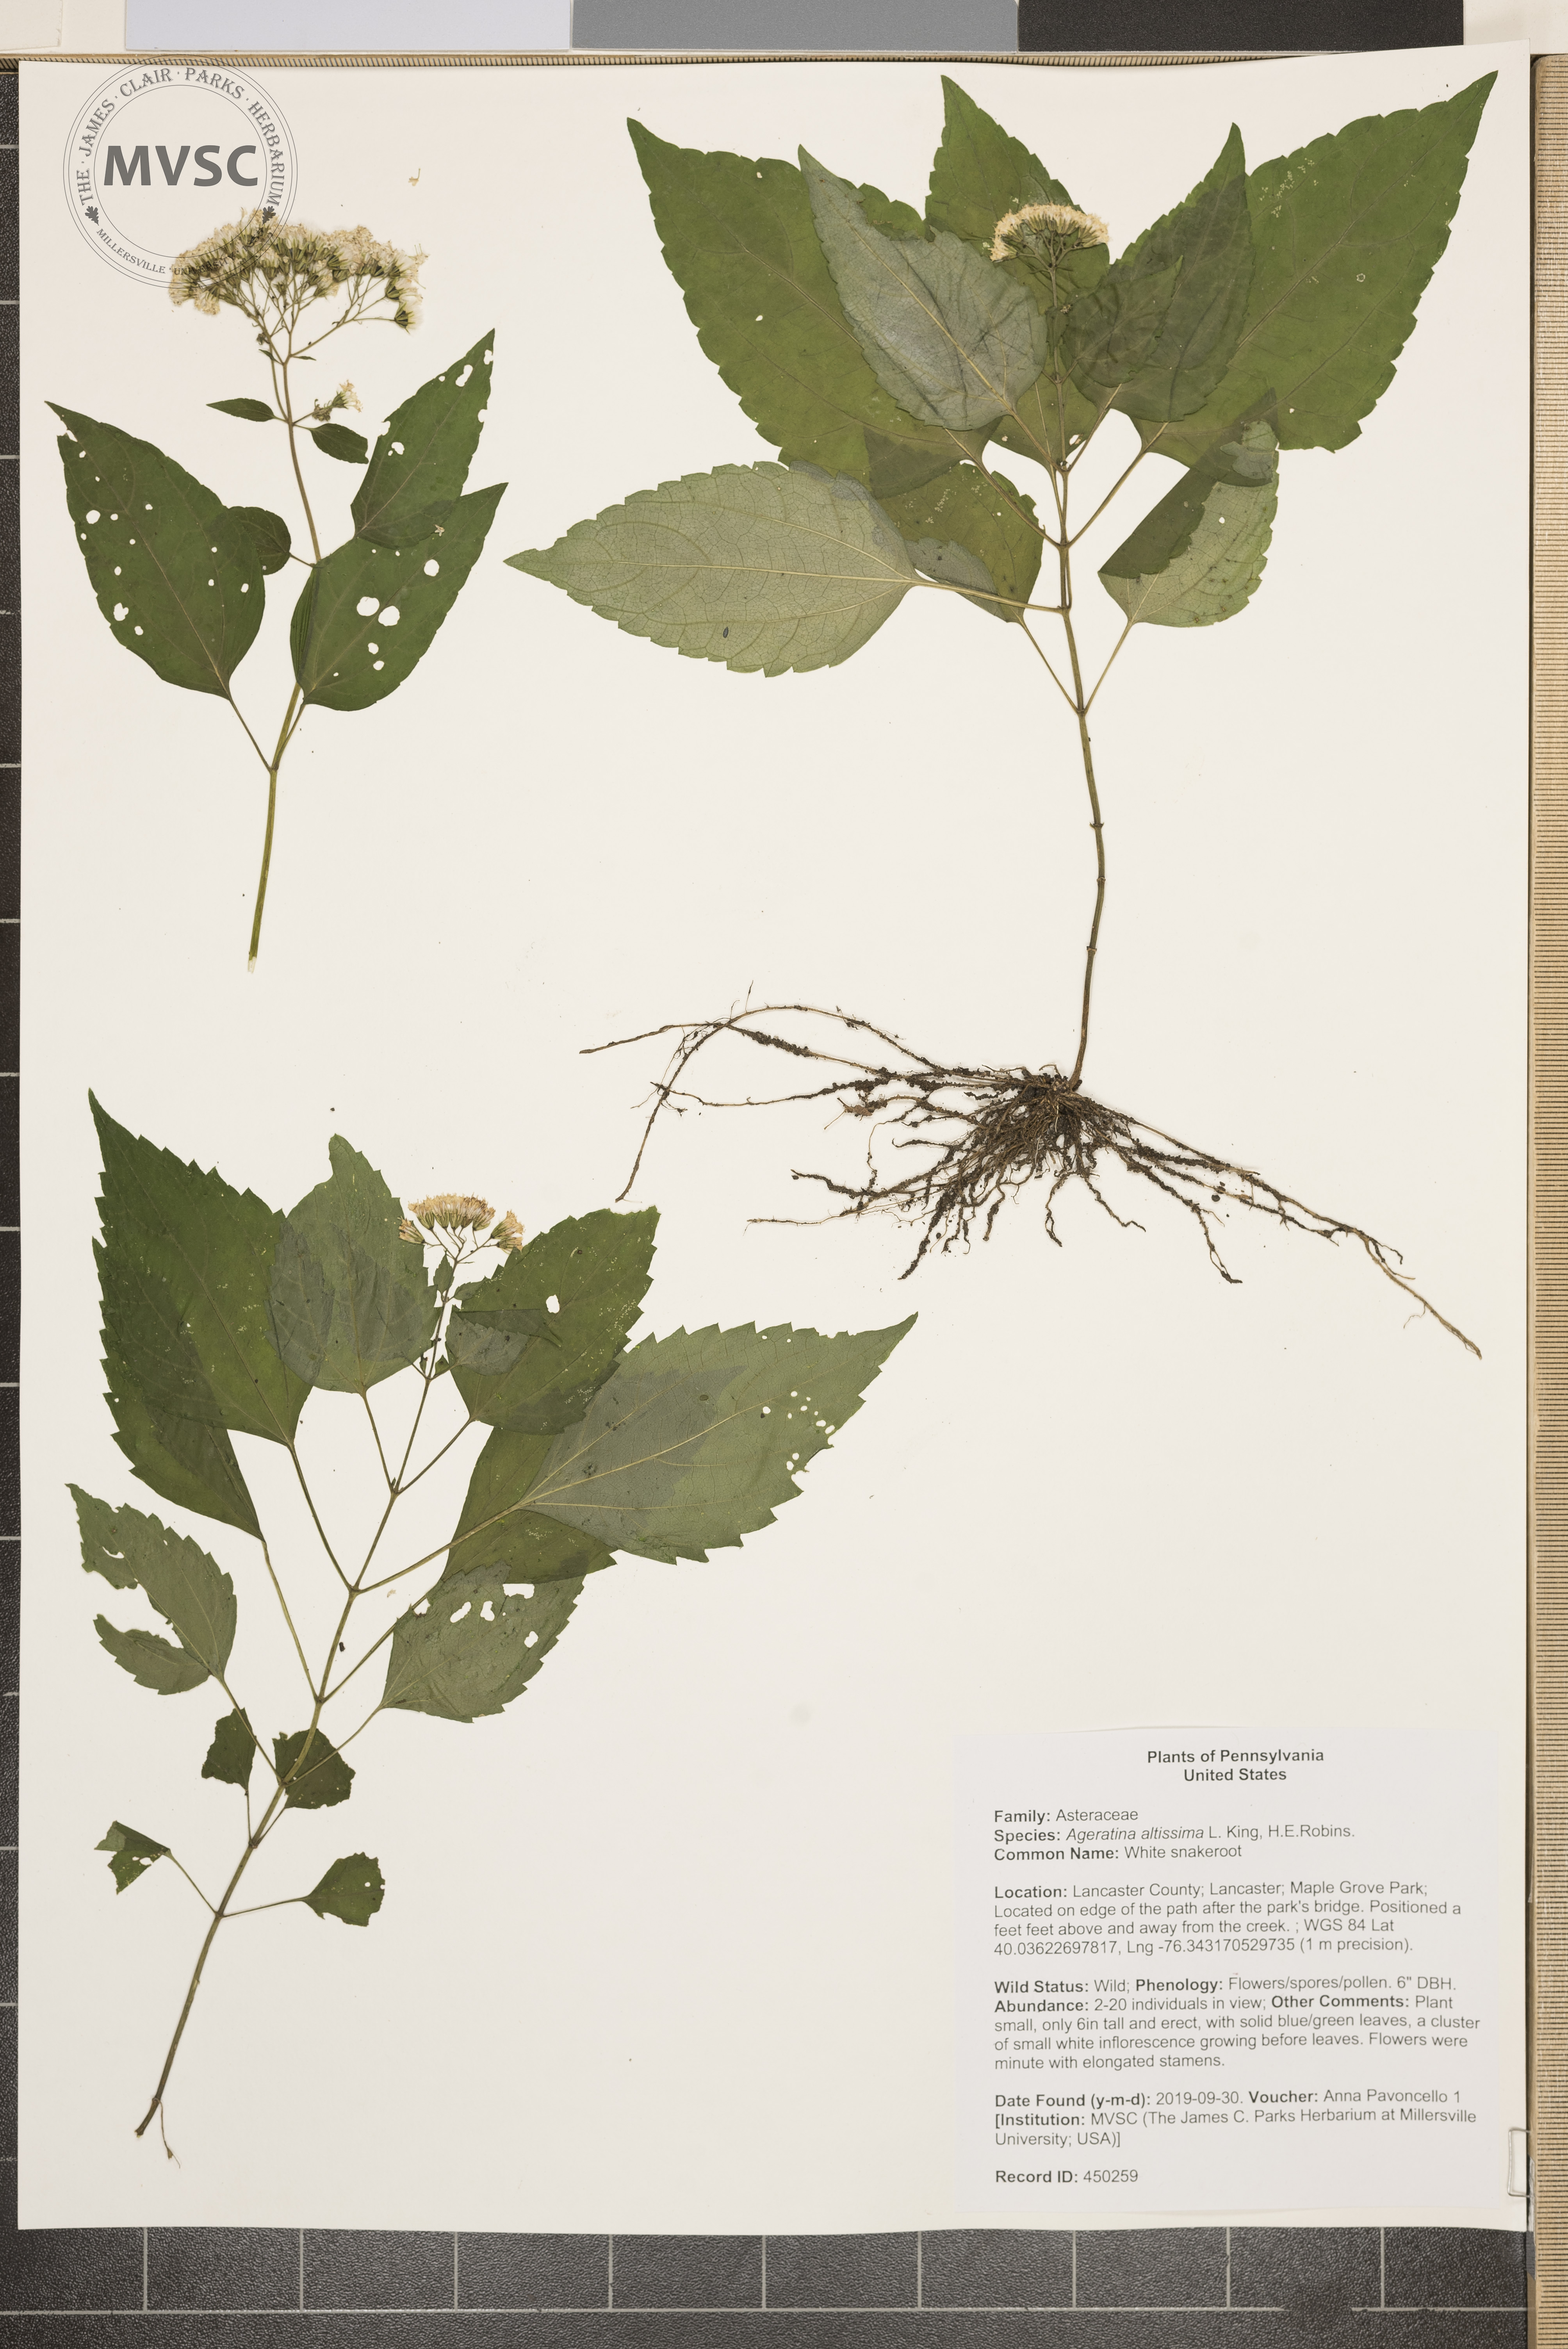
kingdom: Plantae
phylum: Tracheophyta
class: Magnoliopsida
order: Asterales
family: Asteraceae
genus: Ageratina
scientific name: Ageratina altissima
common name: White snakeroot
